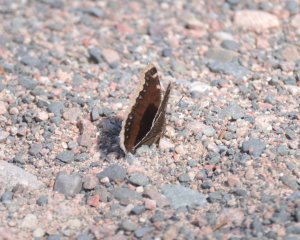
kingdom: Animalia
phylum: Arthropoda
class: Insecta
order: Lepidoptera
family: Nymphalidae
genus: Nymphalis
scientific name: Nymphalis antiopa
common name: Mourning Cloak
